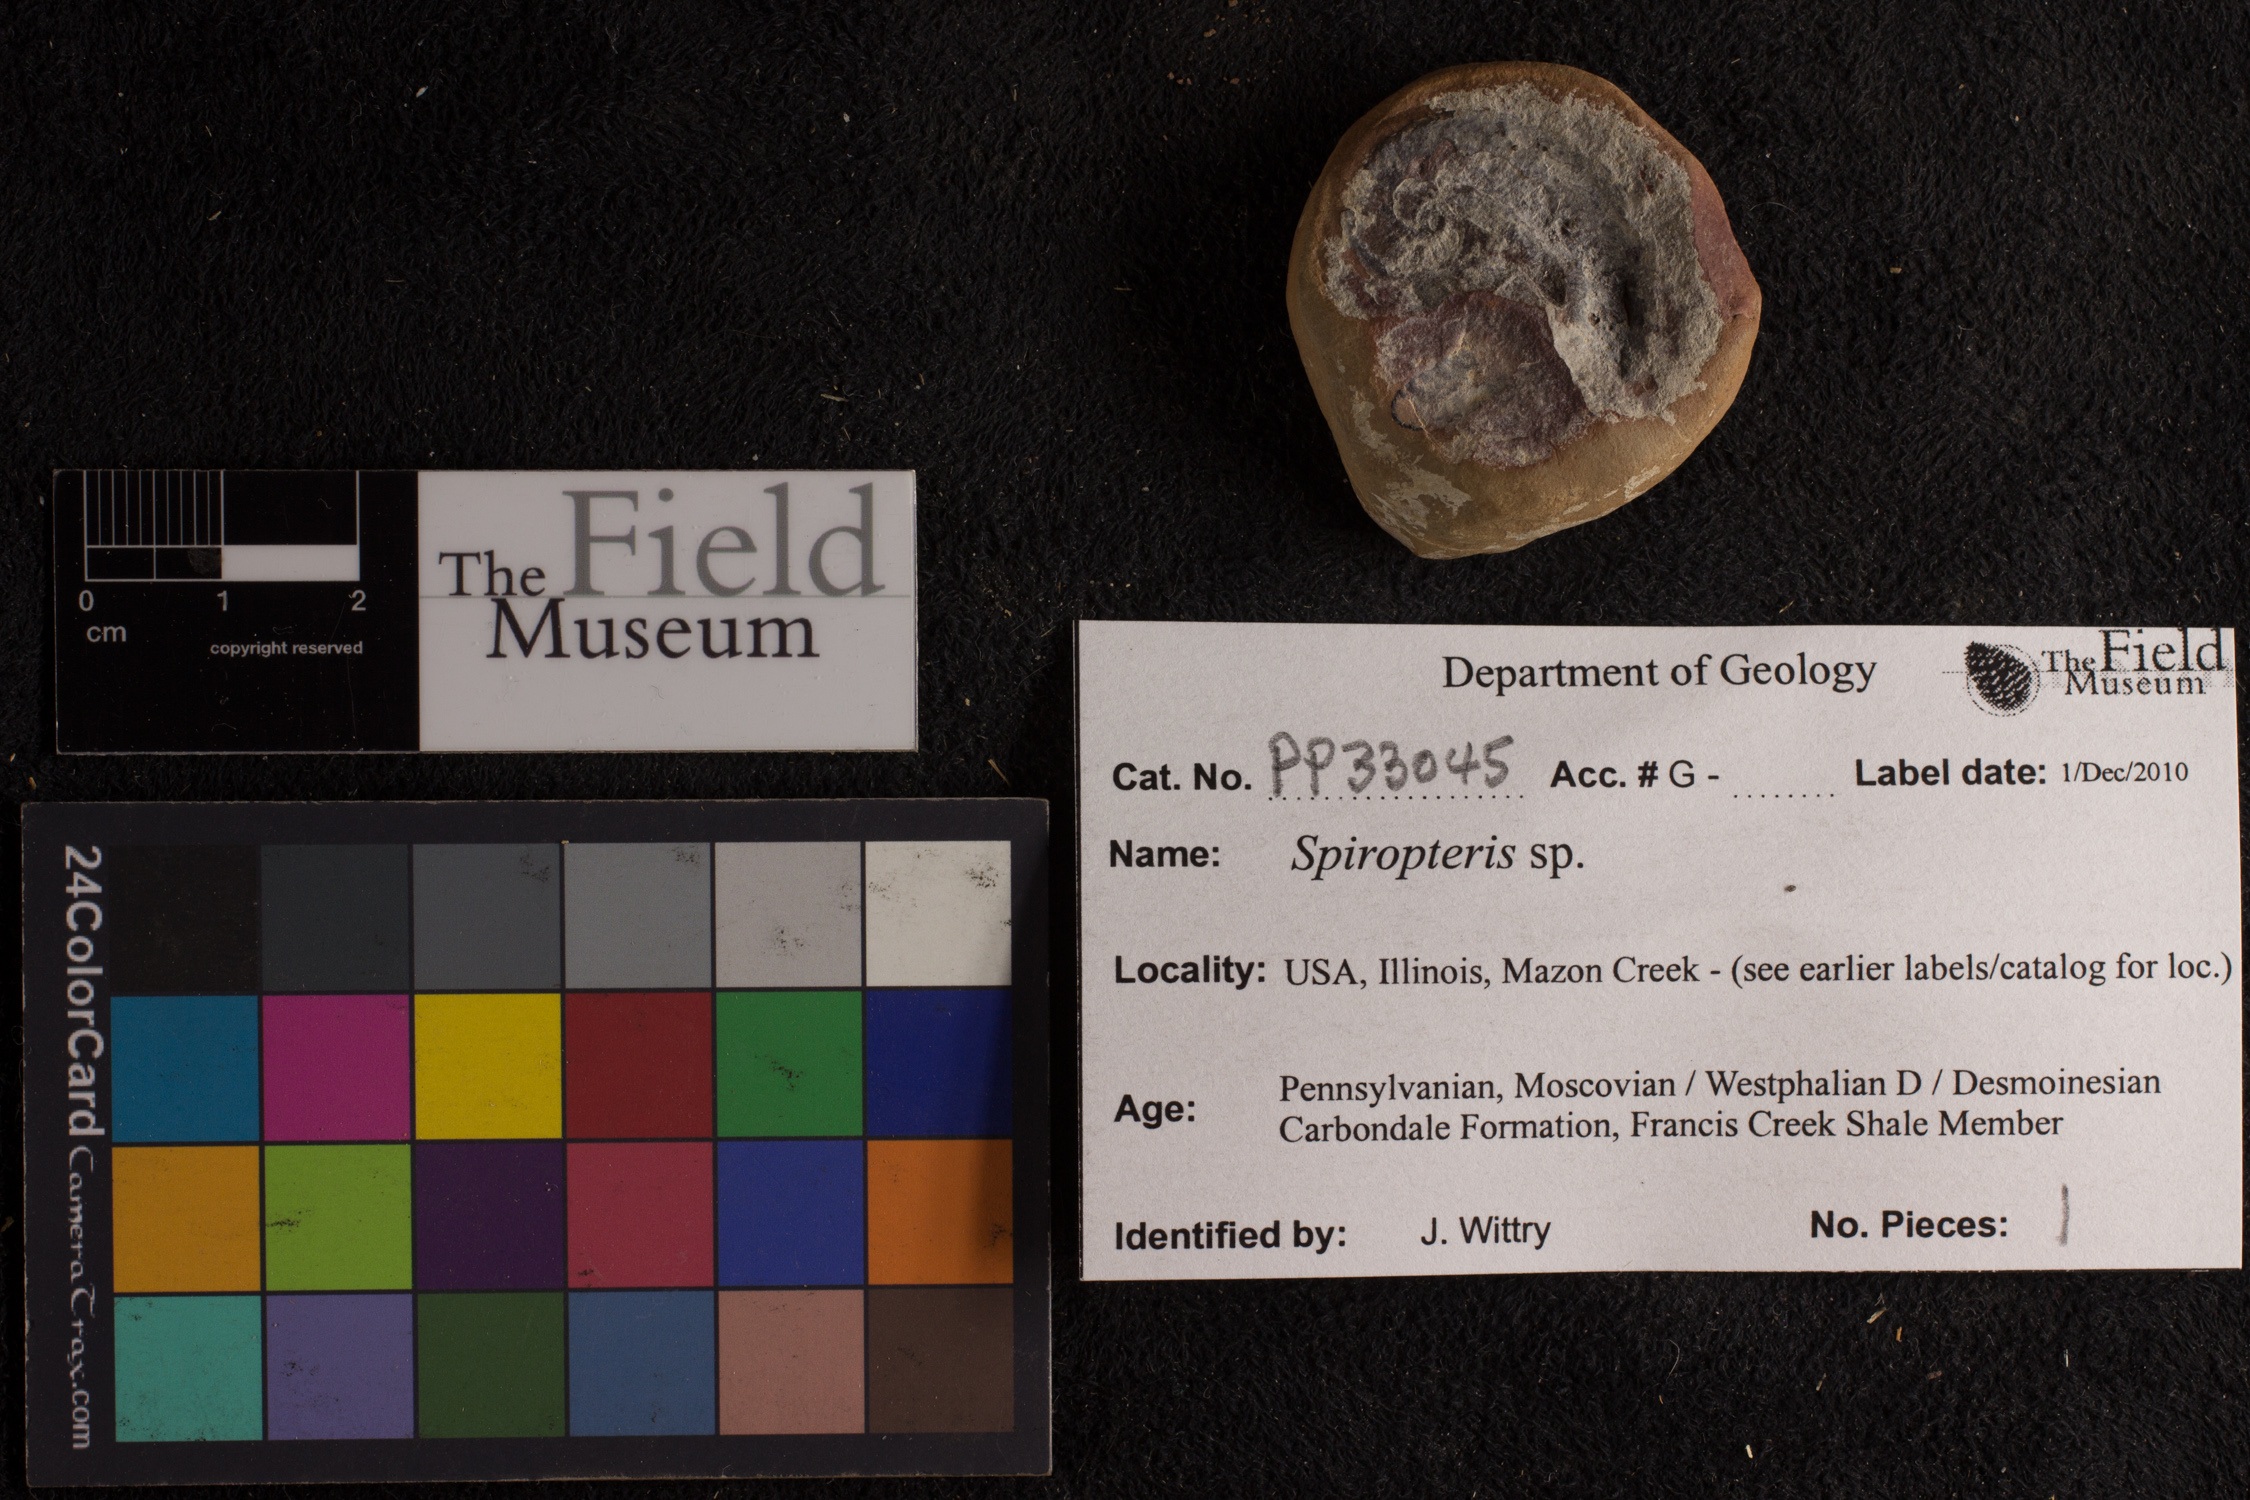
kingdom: Plantae
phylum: Tracheophyta
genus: Spiropteris
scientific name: Spiropteris
